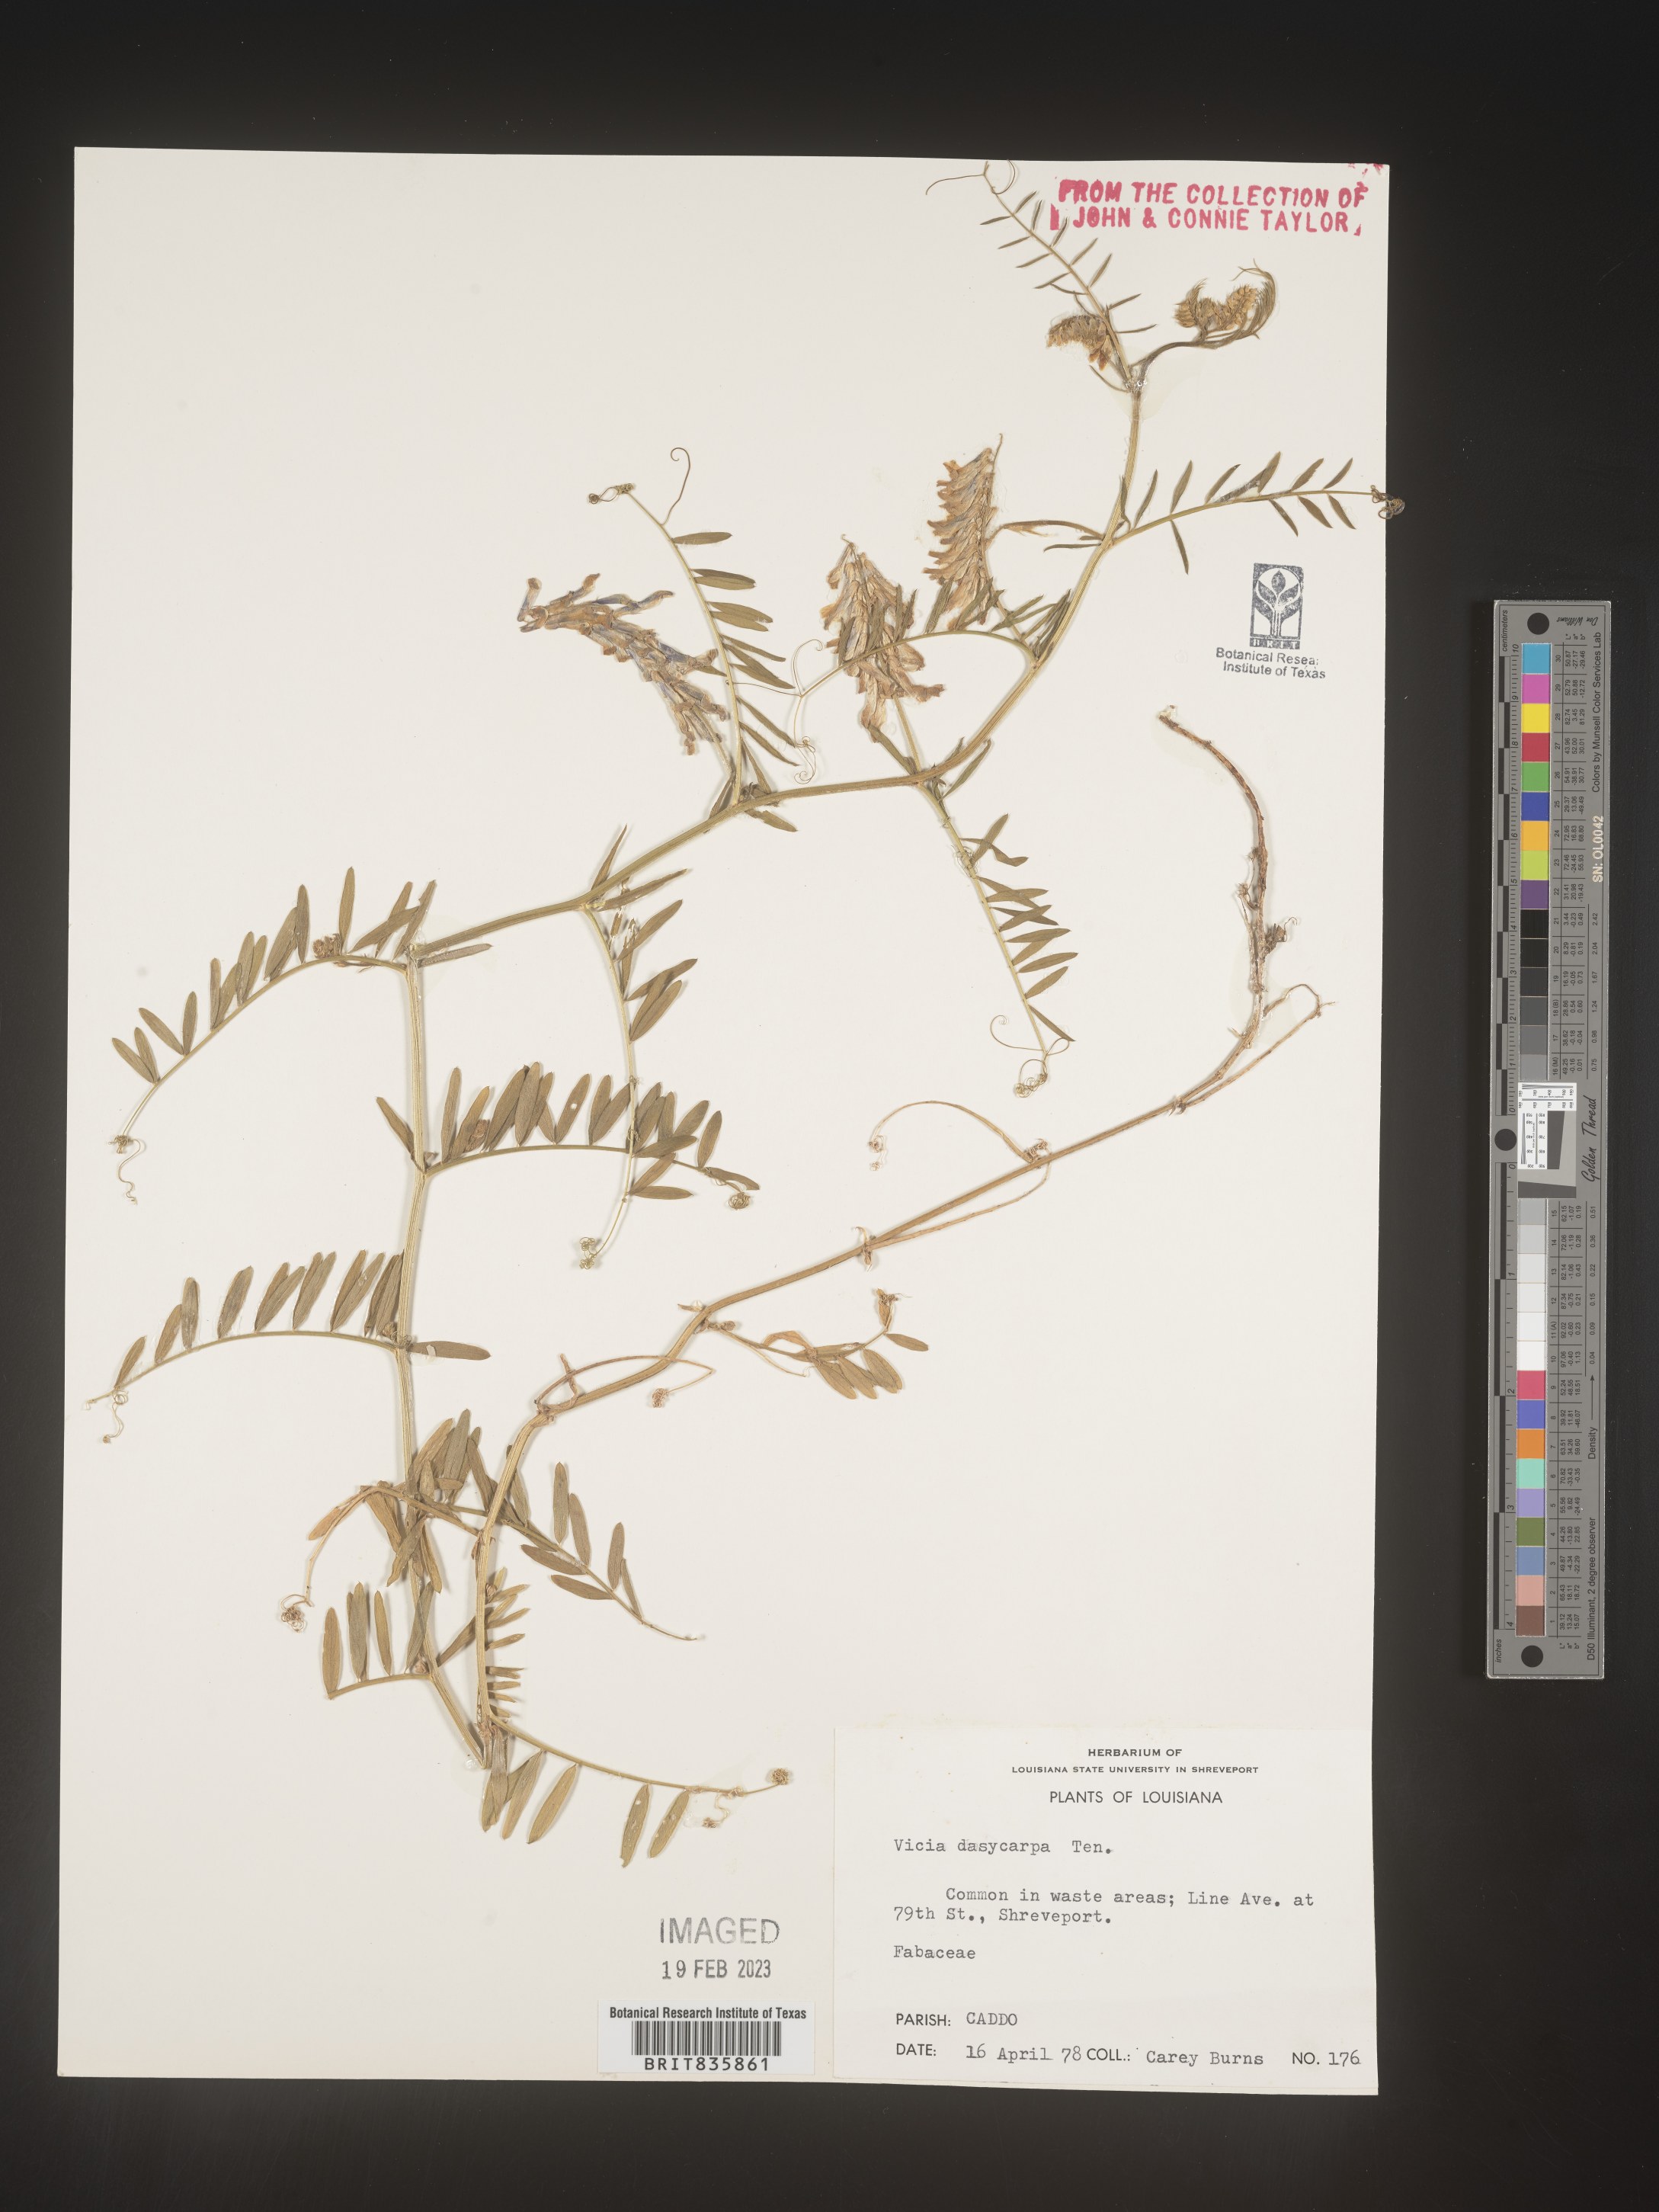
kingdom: Plantae
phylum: Tracheophyta
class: Magnoliopsida
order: Fabales
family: Fabaceae
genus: Vicia
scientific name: Vicia villosa
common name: Fodder vetch
